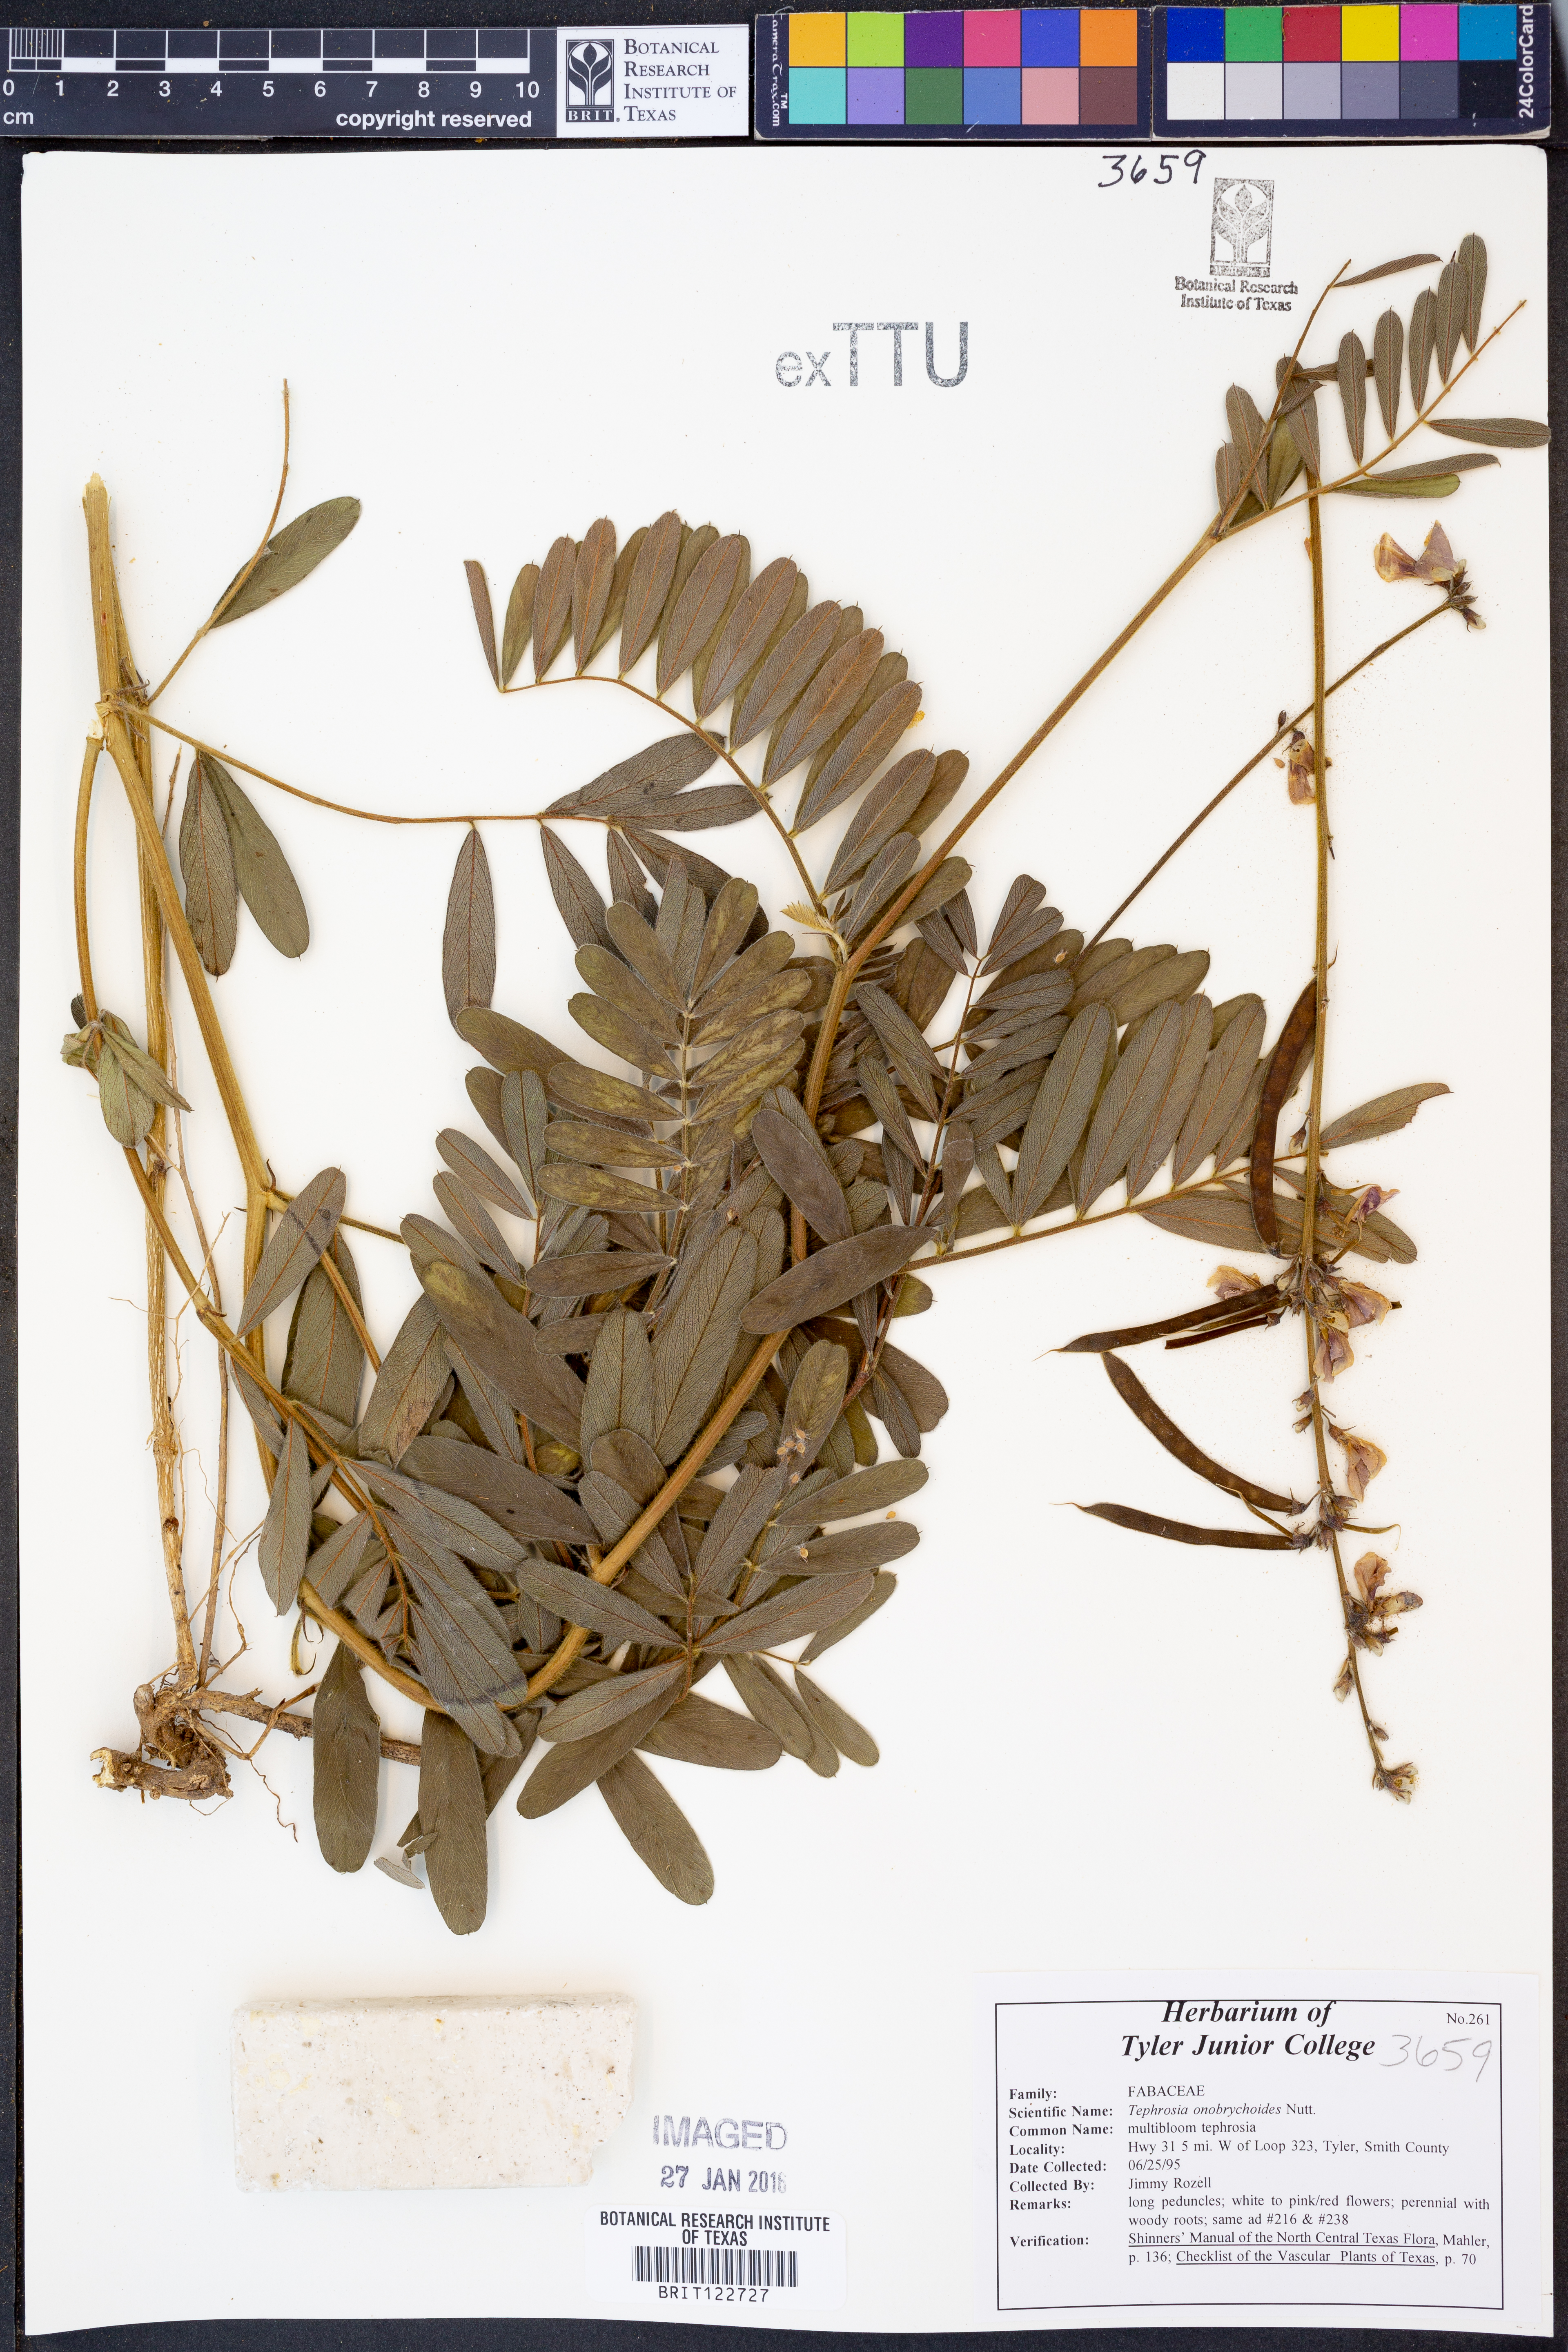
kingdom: Plantae
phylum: Tracheophyta
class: Magnoliopsida
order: Fabales
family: Fabaceae
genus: Tephrosia
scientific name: Tephrosia onobrychoides
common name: Multi-bloom hoary-pea
